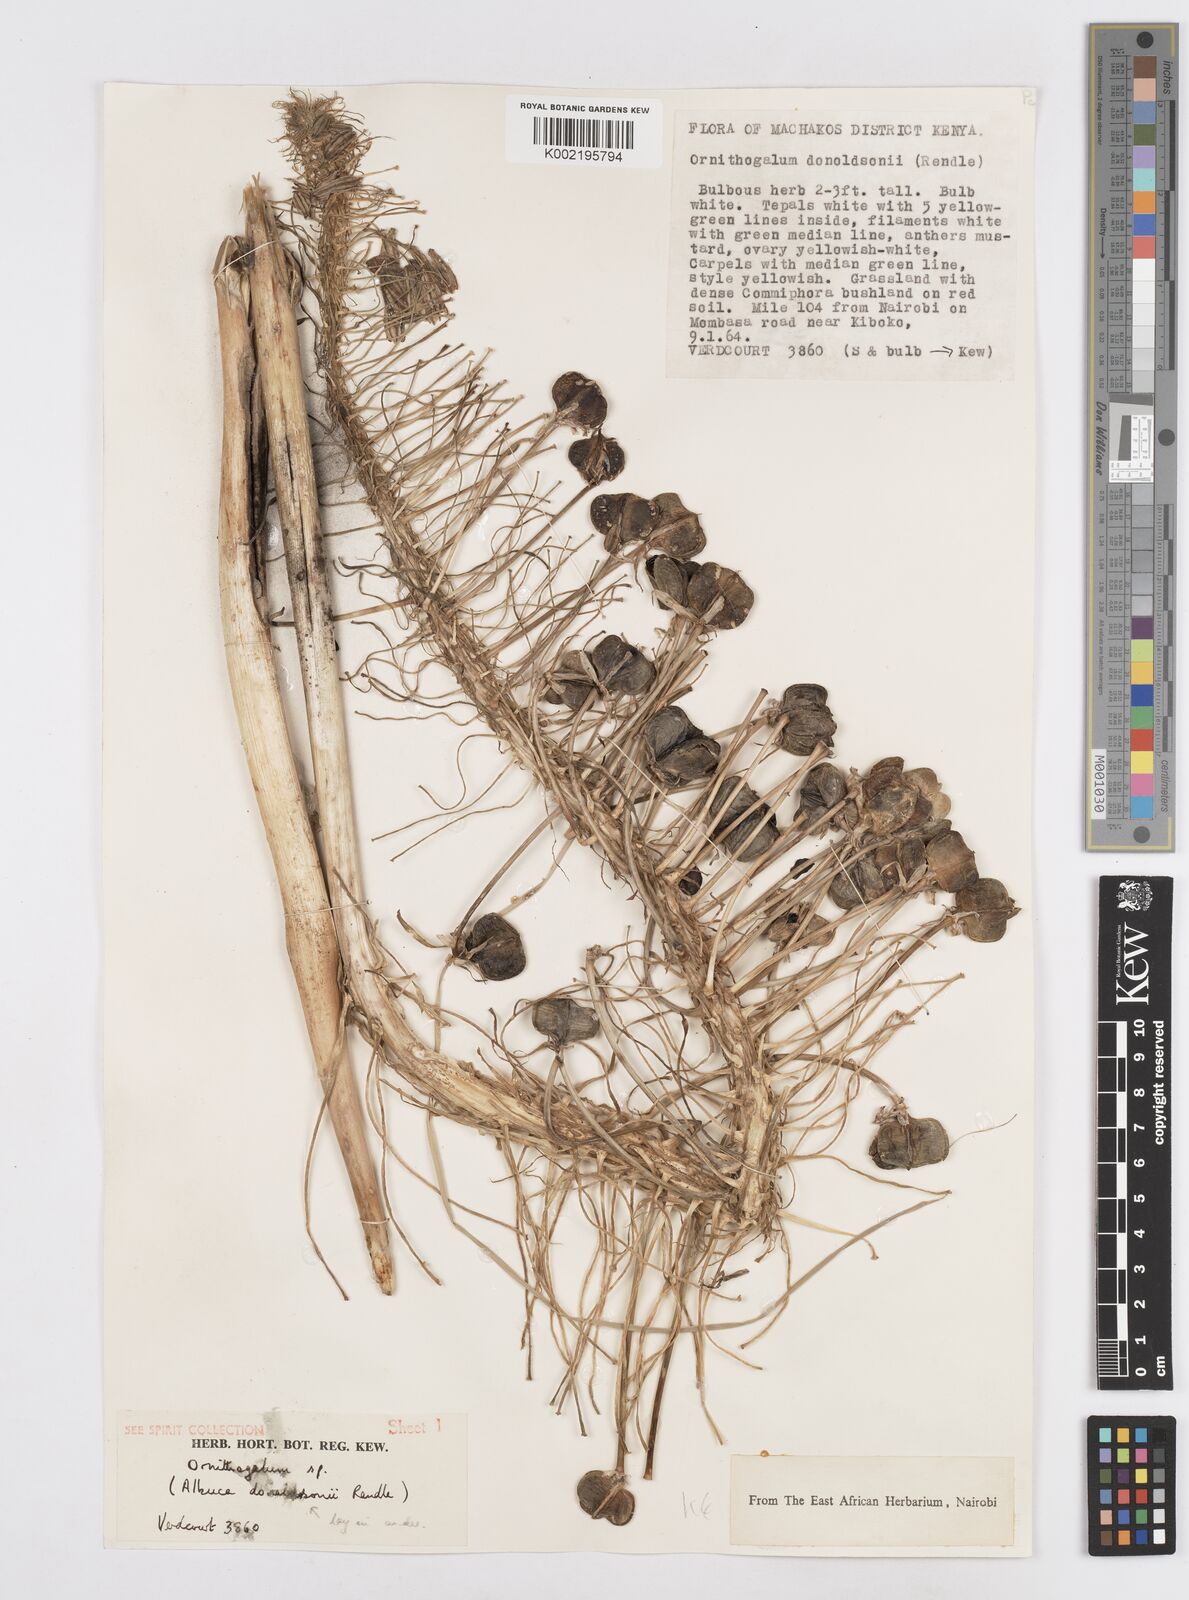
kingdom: Plantae
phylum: Tracheophyta
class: Liliopsida
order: Asparagales
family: Asparagaceae
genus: Albuca
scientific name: Albuca donaldsonii
